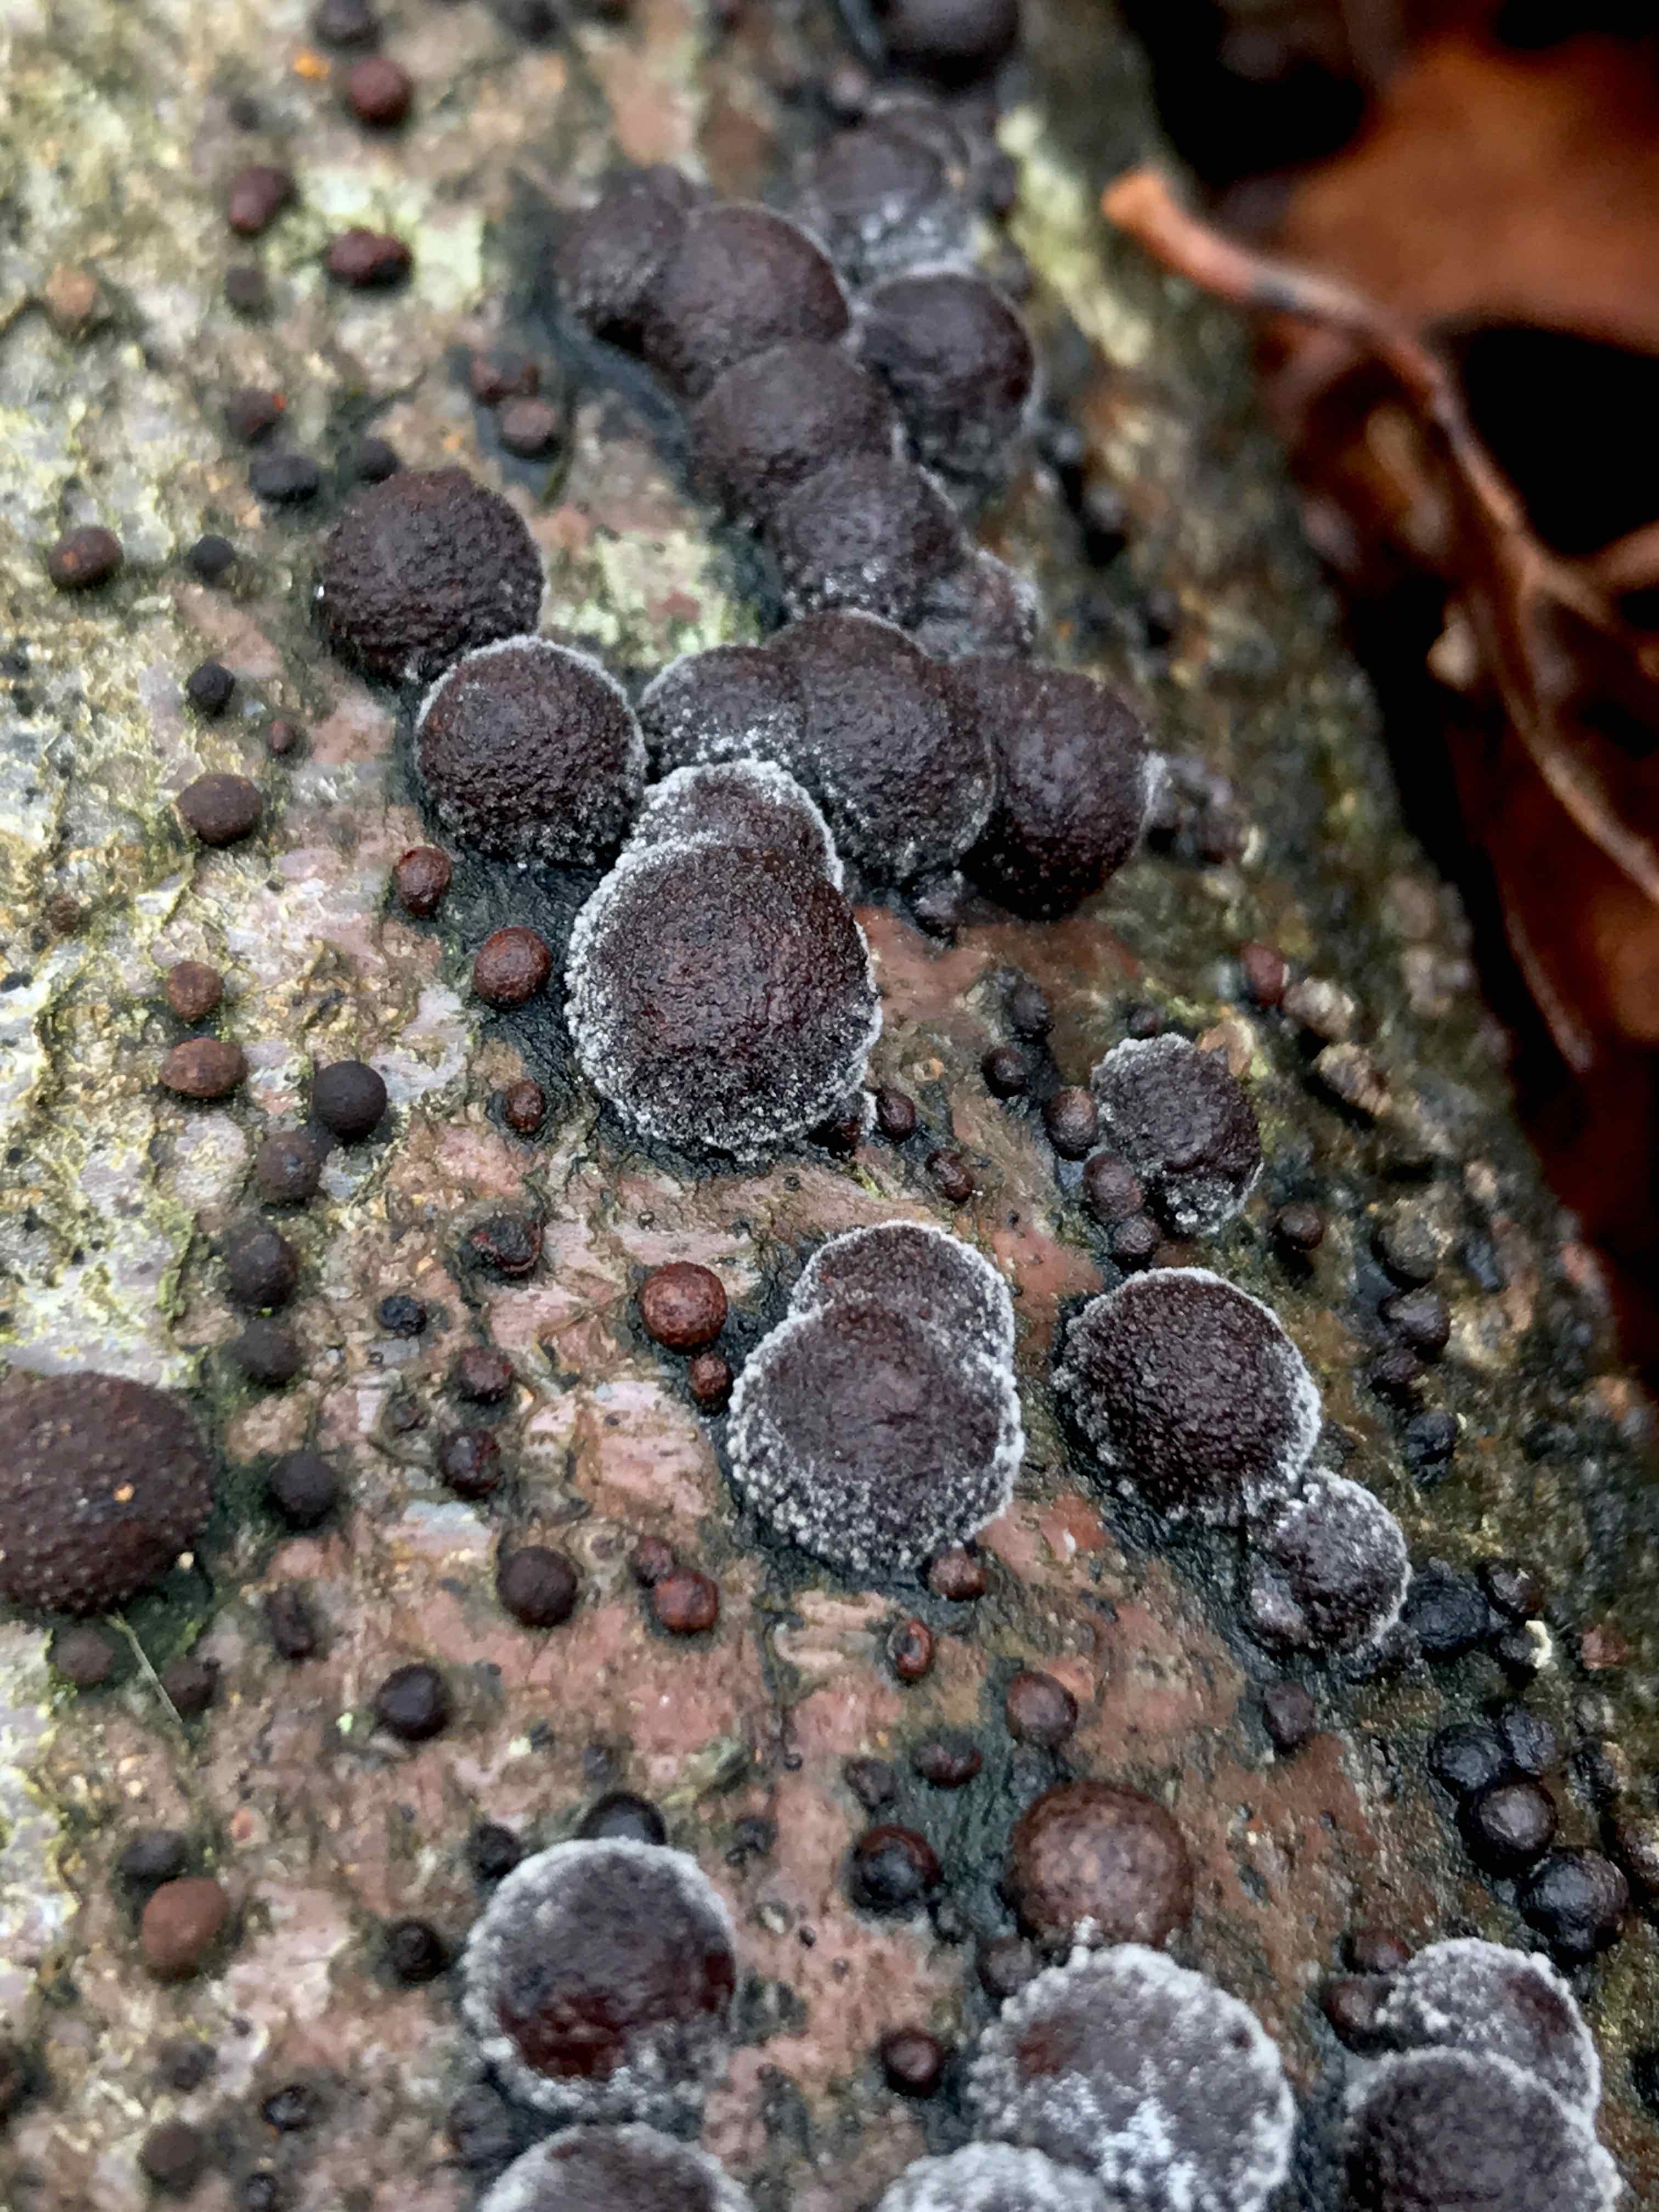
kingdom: Fungi
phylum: Ascomycota
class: Sordariomycetes
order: Xylariales
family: Hypoxylaceae
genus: Hypoxylon
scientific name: Hypoxylon fragiforme
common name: kuljordbær
